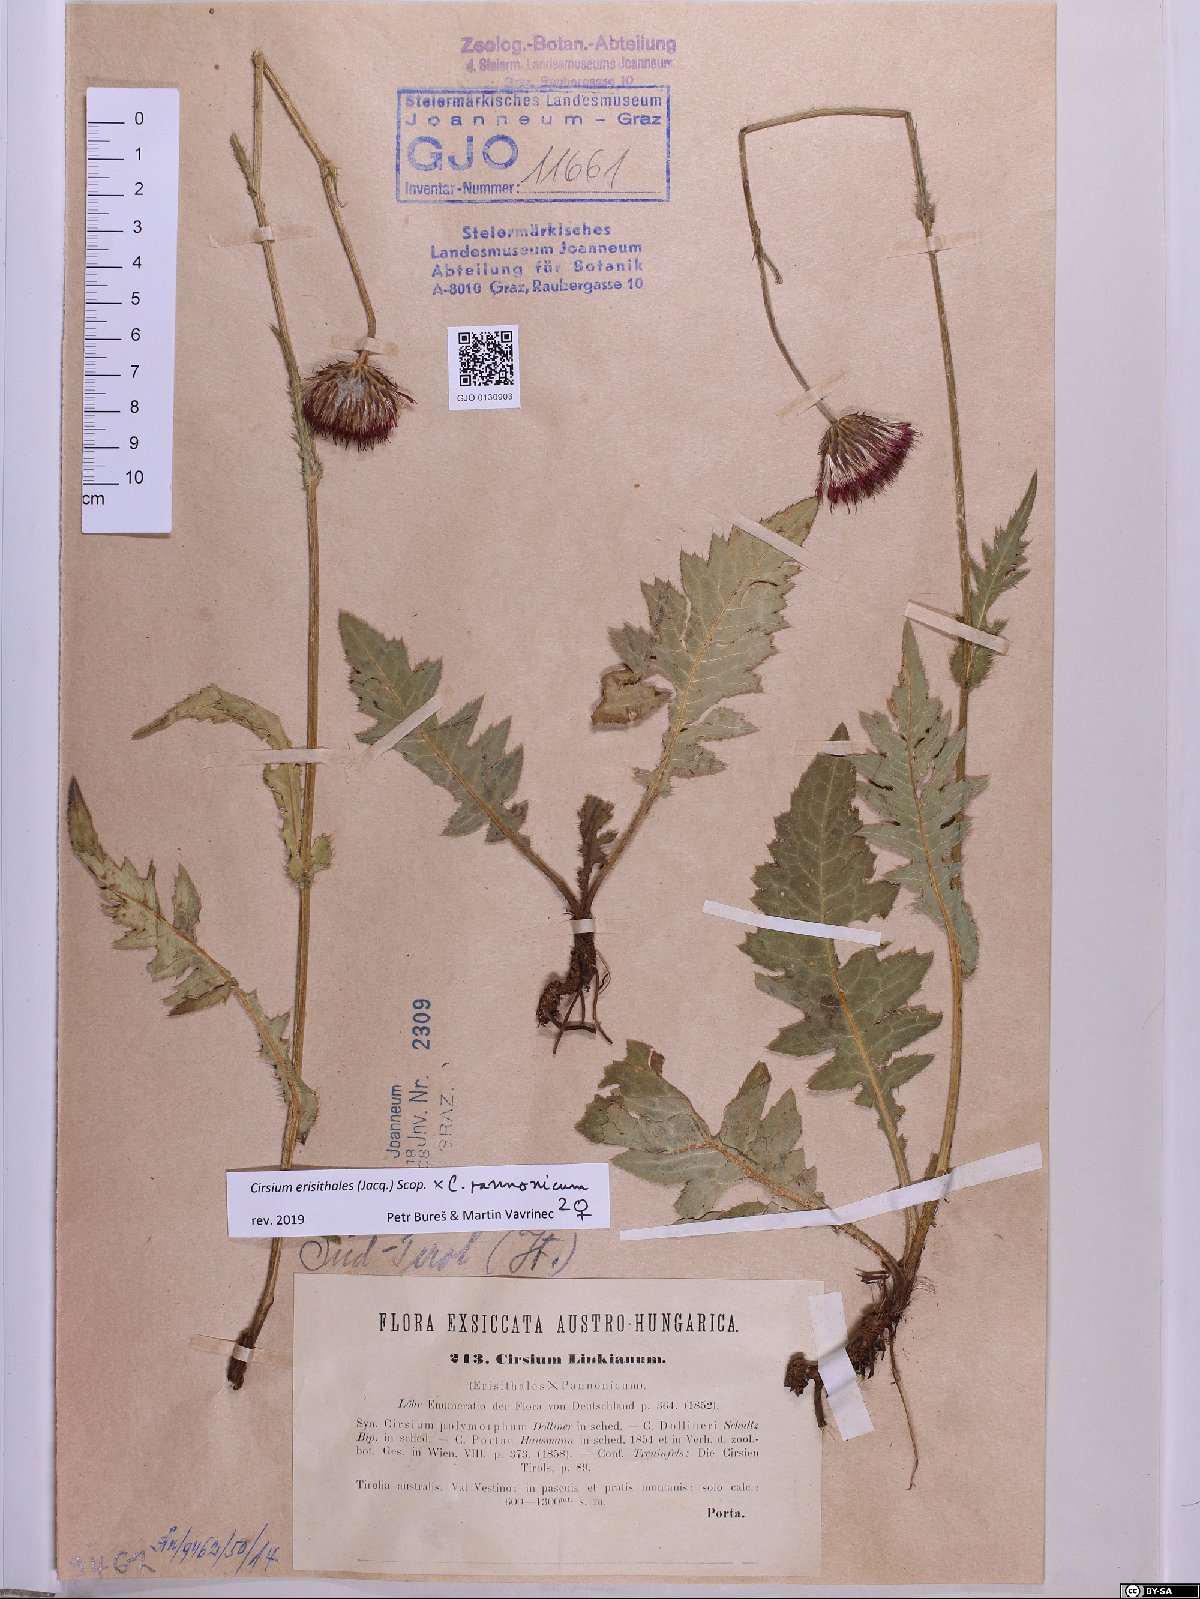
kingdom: Plantae
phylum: Tracheophyta
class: Magnoliopsida
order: Asterales
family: Asteraceae
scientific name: Asteraceae
